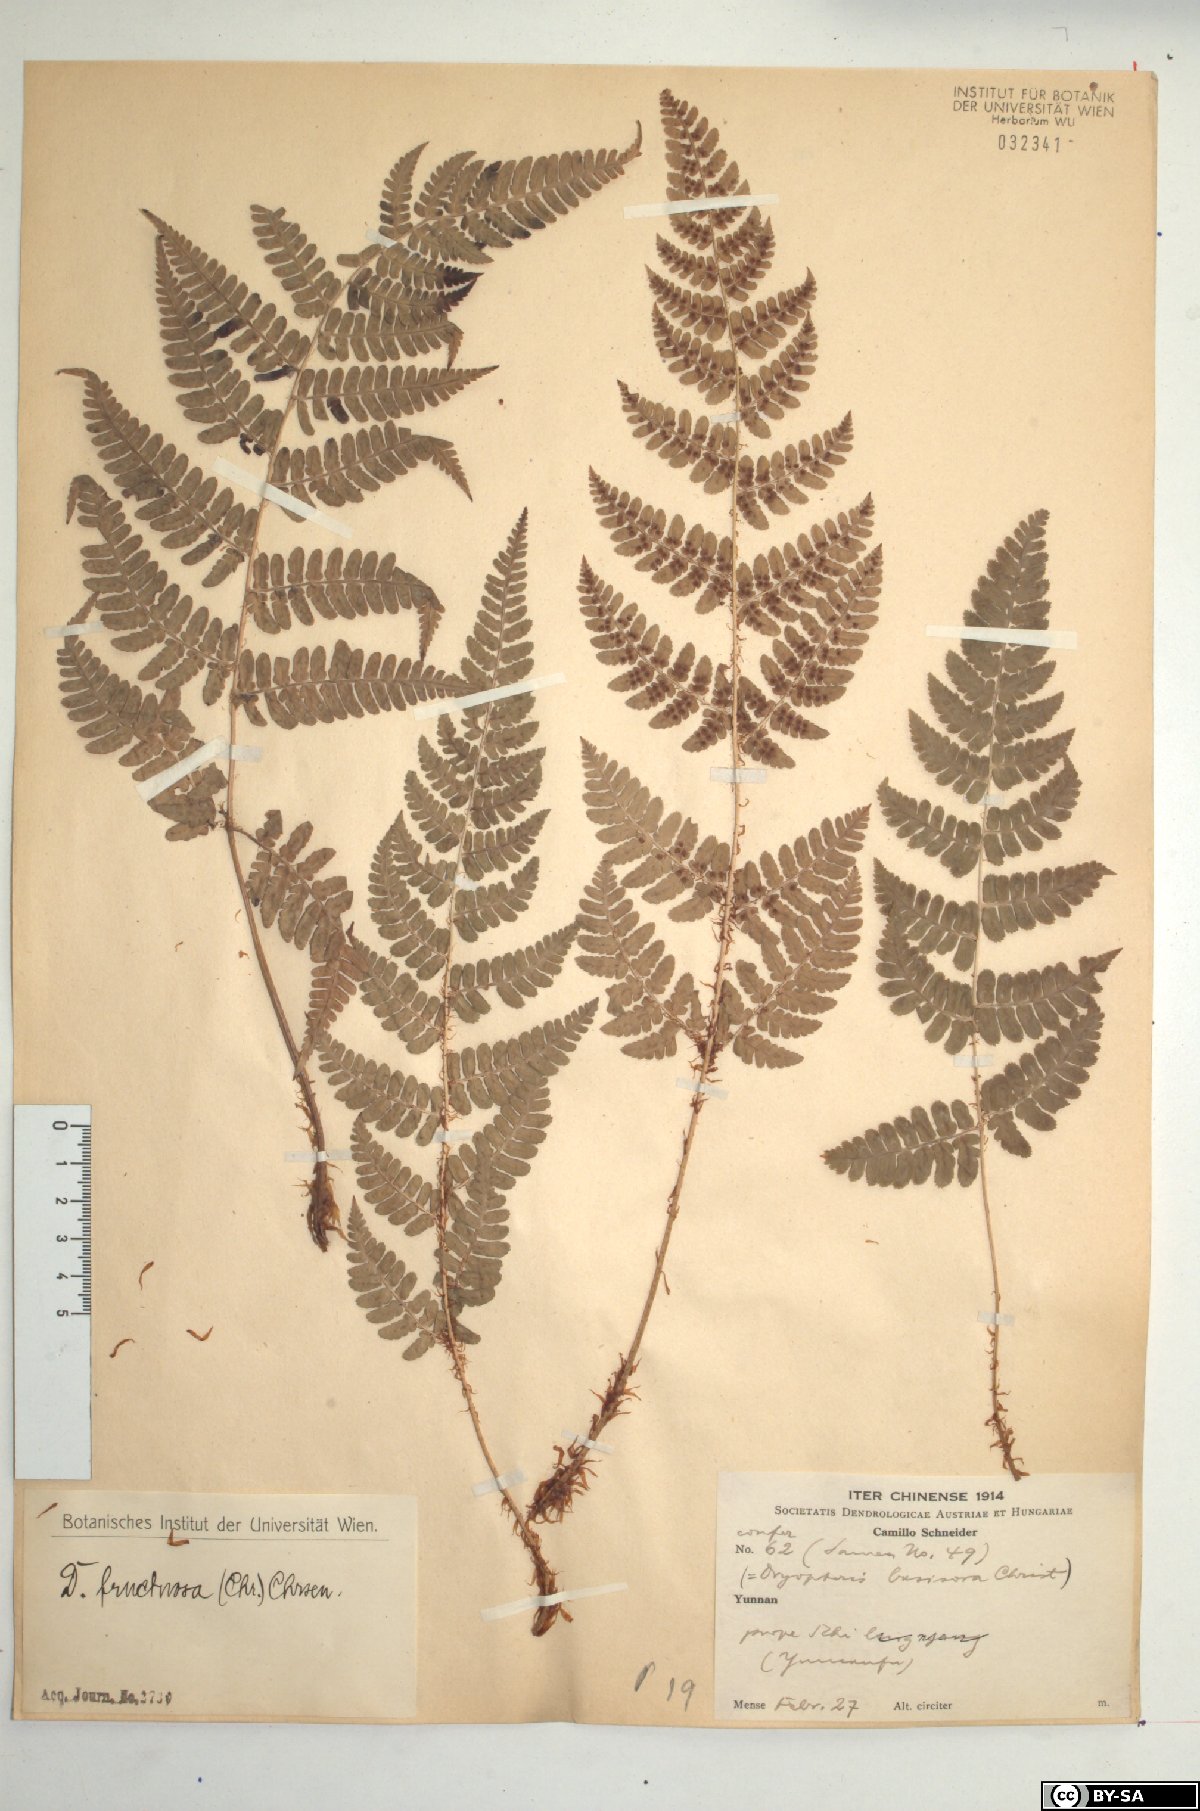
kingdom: Plantae
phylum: Tracheophyta
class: Polypodiopsida
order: Polypodiales
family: Dryopteridaceae
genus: Dryopteris
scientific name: Dryopteris fructuosa
